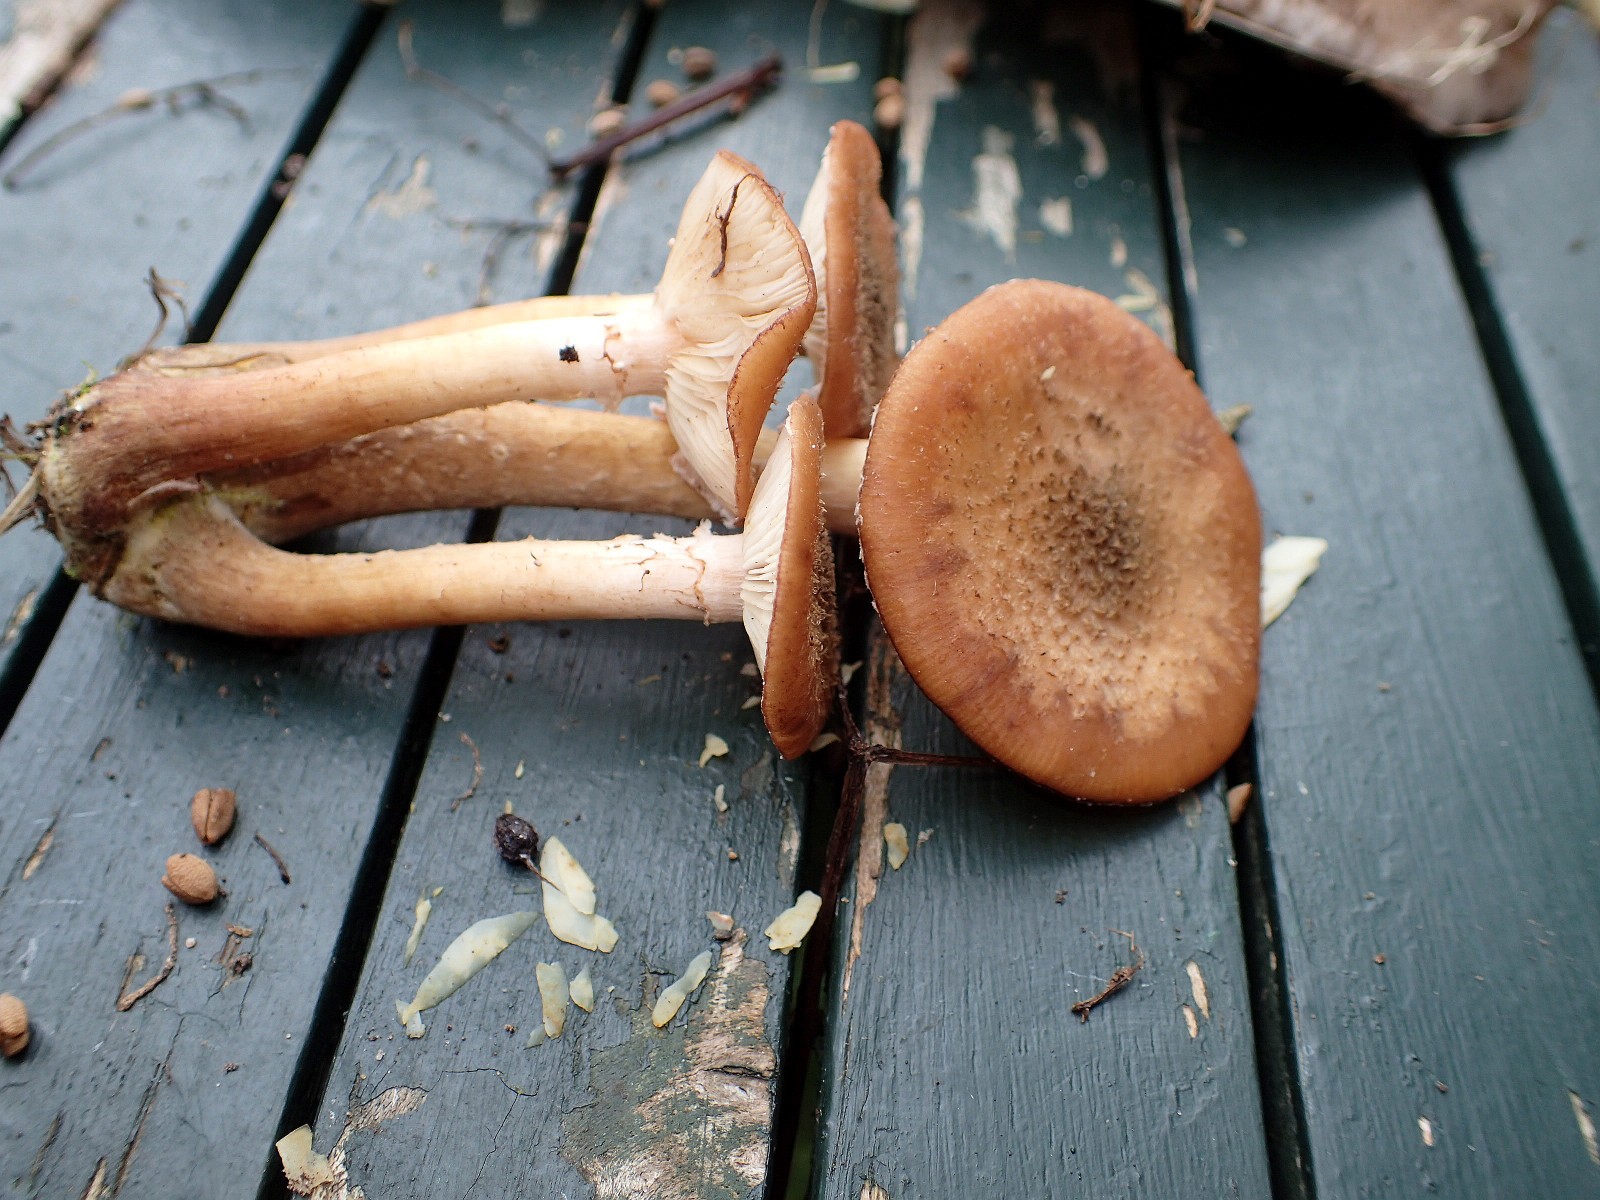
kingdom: Fungi
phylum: Basidiomycota
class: Agaricomycetes
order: Agaricales
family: Physalacriaceae
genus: Armillaria
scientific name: Armillaria lutea
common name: køllestokket honningsvamp
